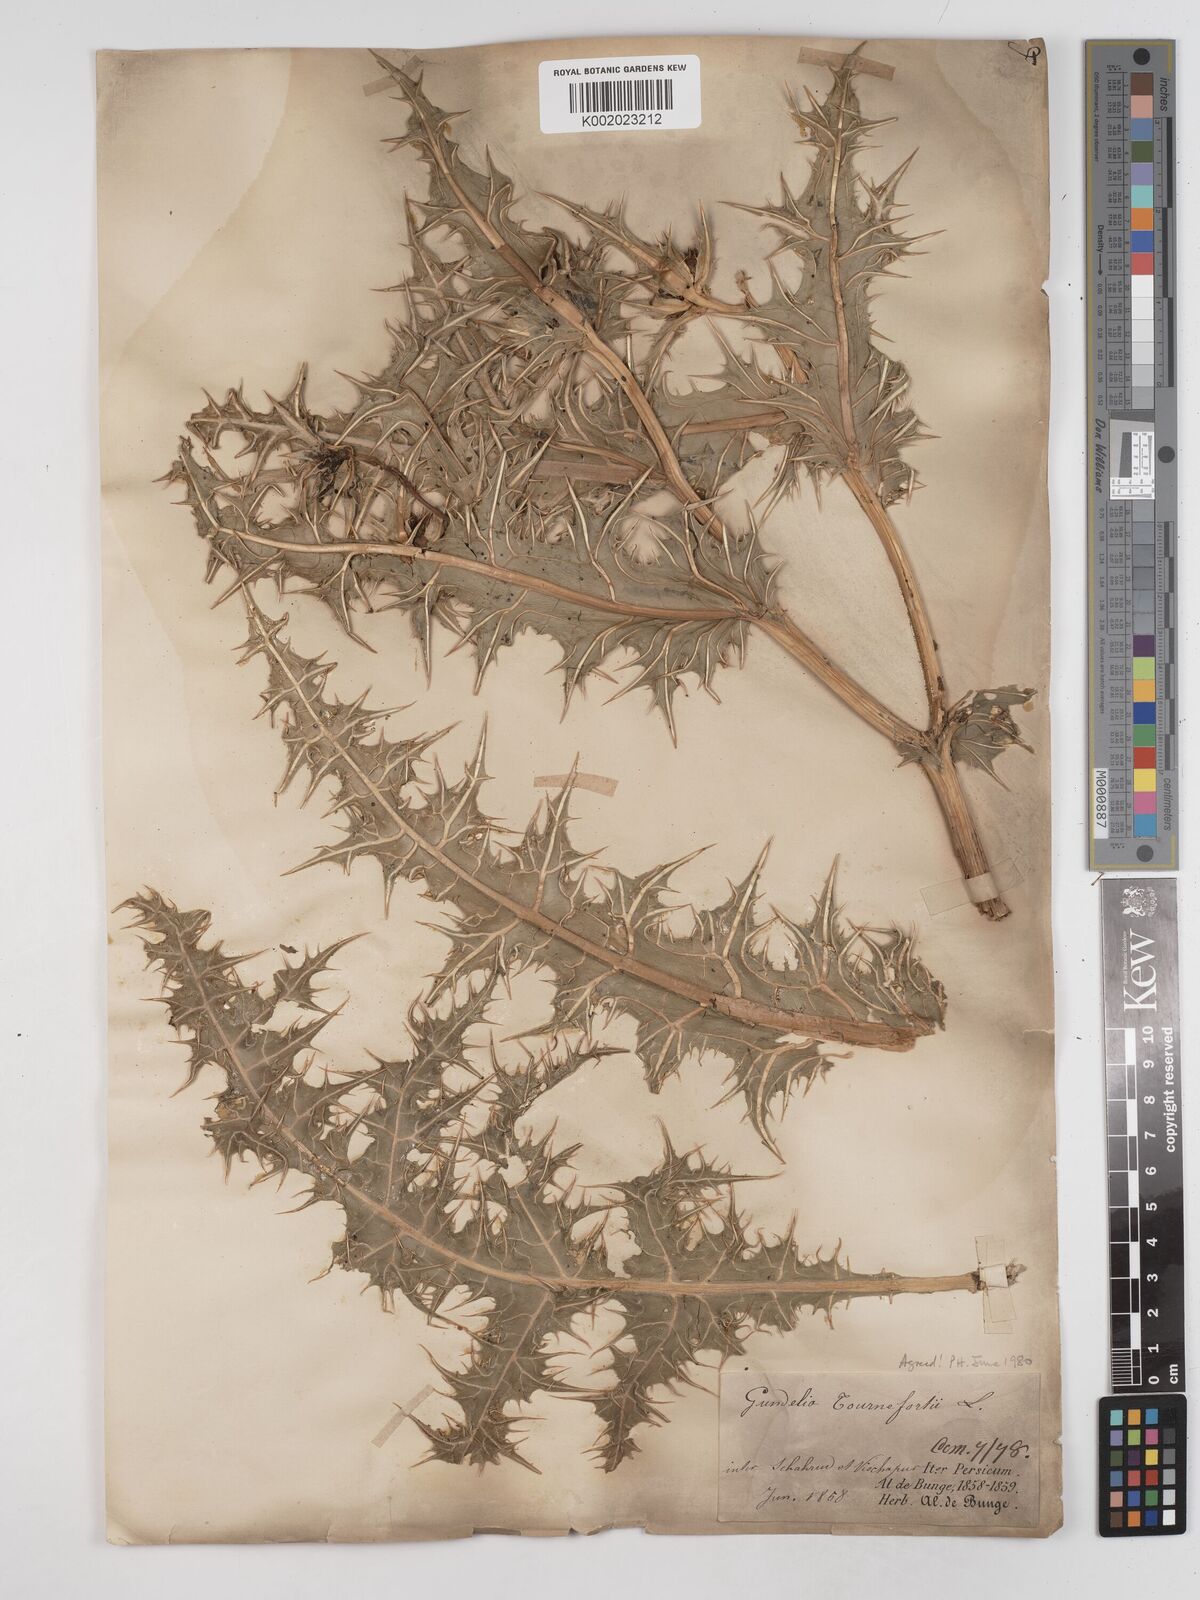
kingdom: Plantae
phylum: Tracheophyta
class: Magnoliopsida
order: Asterales
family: Asteraceae
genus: Gundelia
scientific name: Gundelia tournefortii
